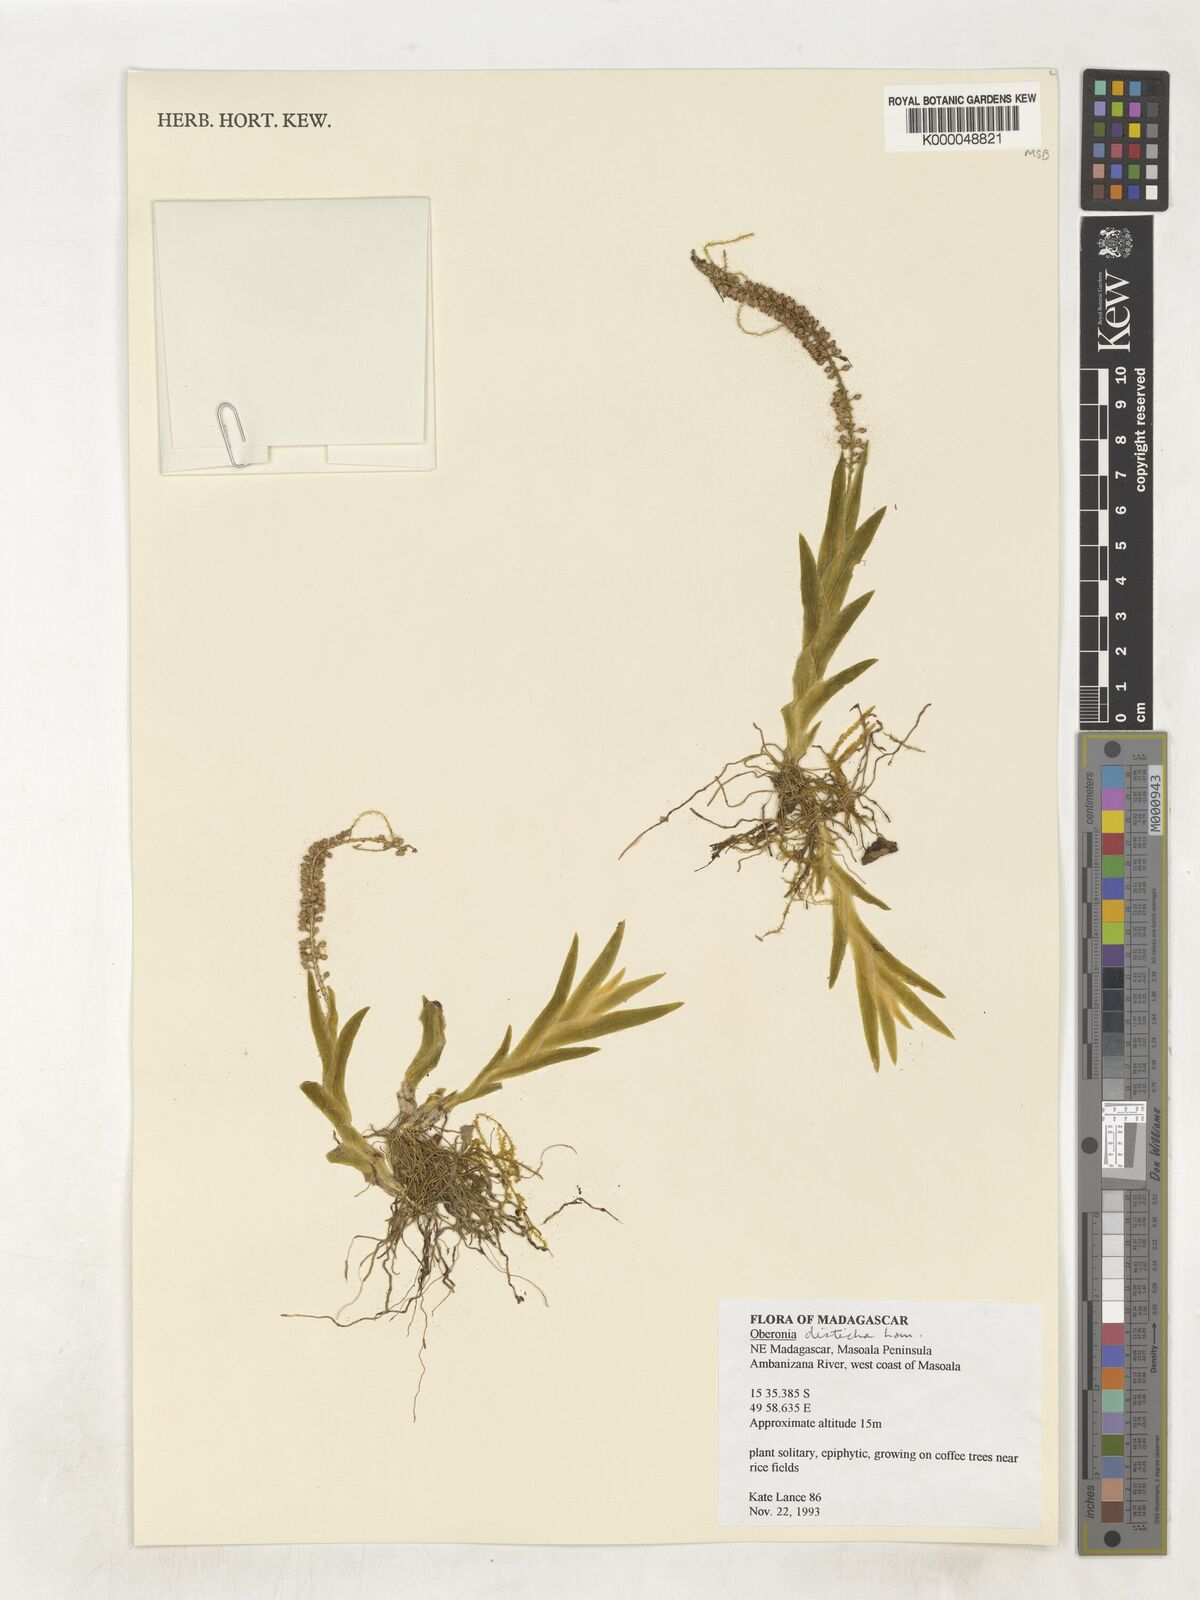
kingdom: Plantae
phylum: Tracheophyta
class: Liliopsida
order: Asparagales
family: Orchidaceae
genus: Oberonia
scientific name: Oberonia disticha
